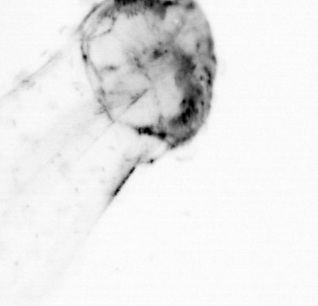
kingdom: Animalia
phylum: Chaetognatha
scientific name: Chaetognatha
